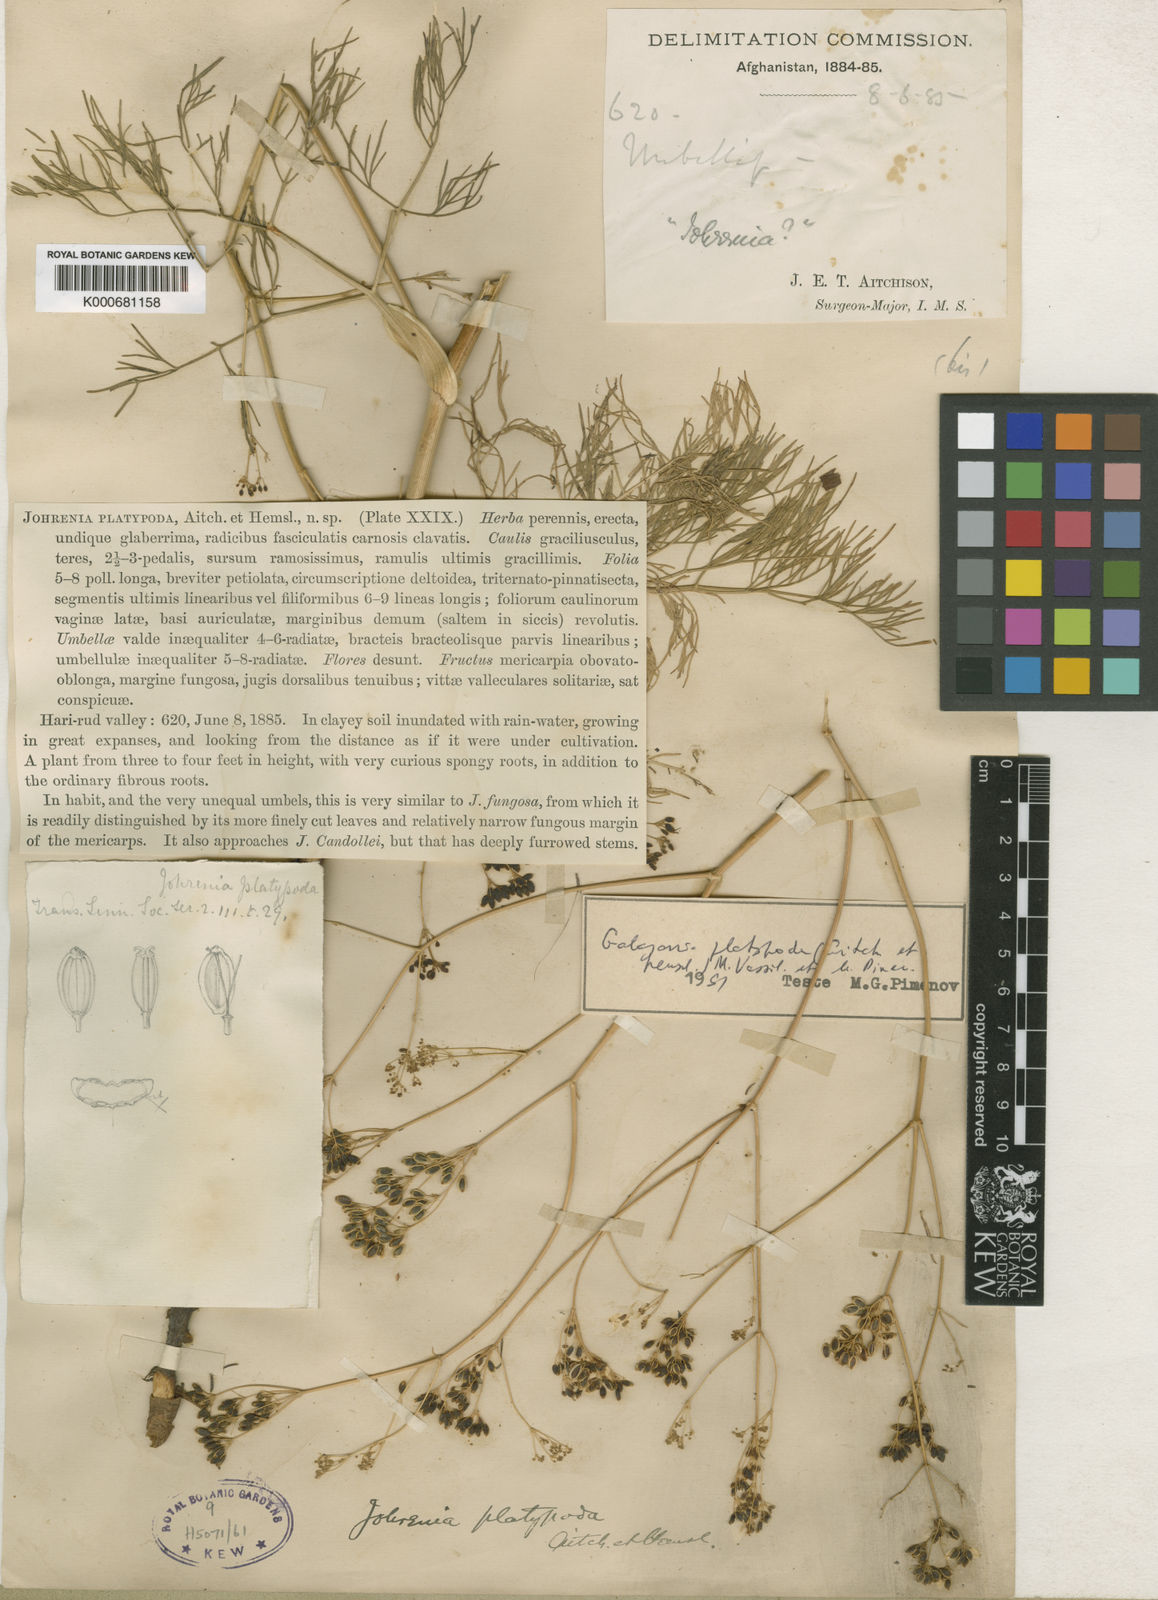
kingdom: Plantae
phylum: Tracheophyta
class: Magnoliopsida
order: Apiales
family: Apiaceae
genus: Galagania
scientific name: Galagania tenuisecta
